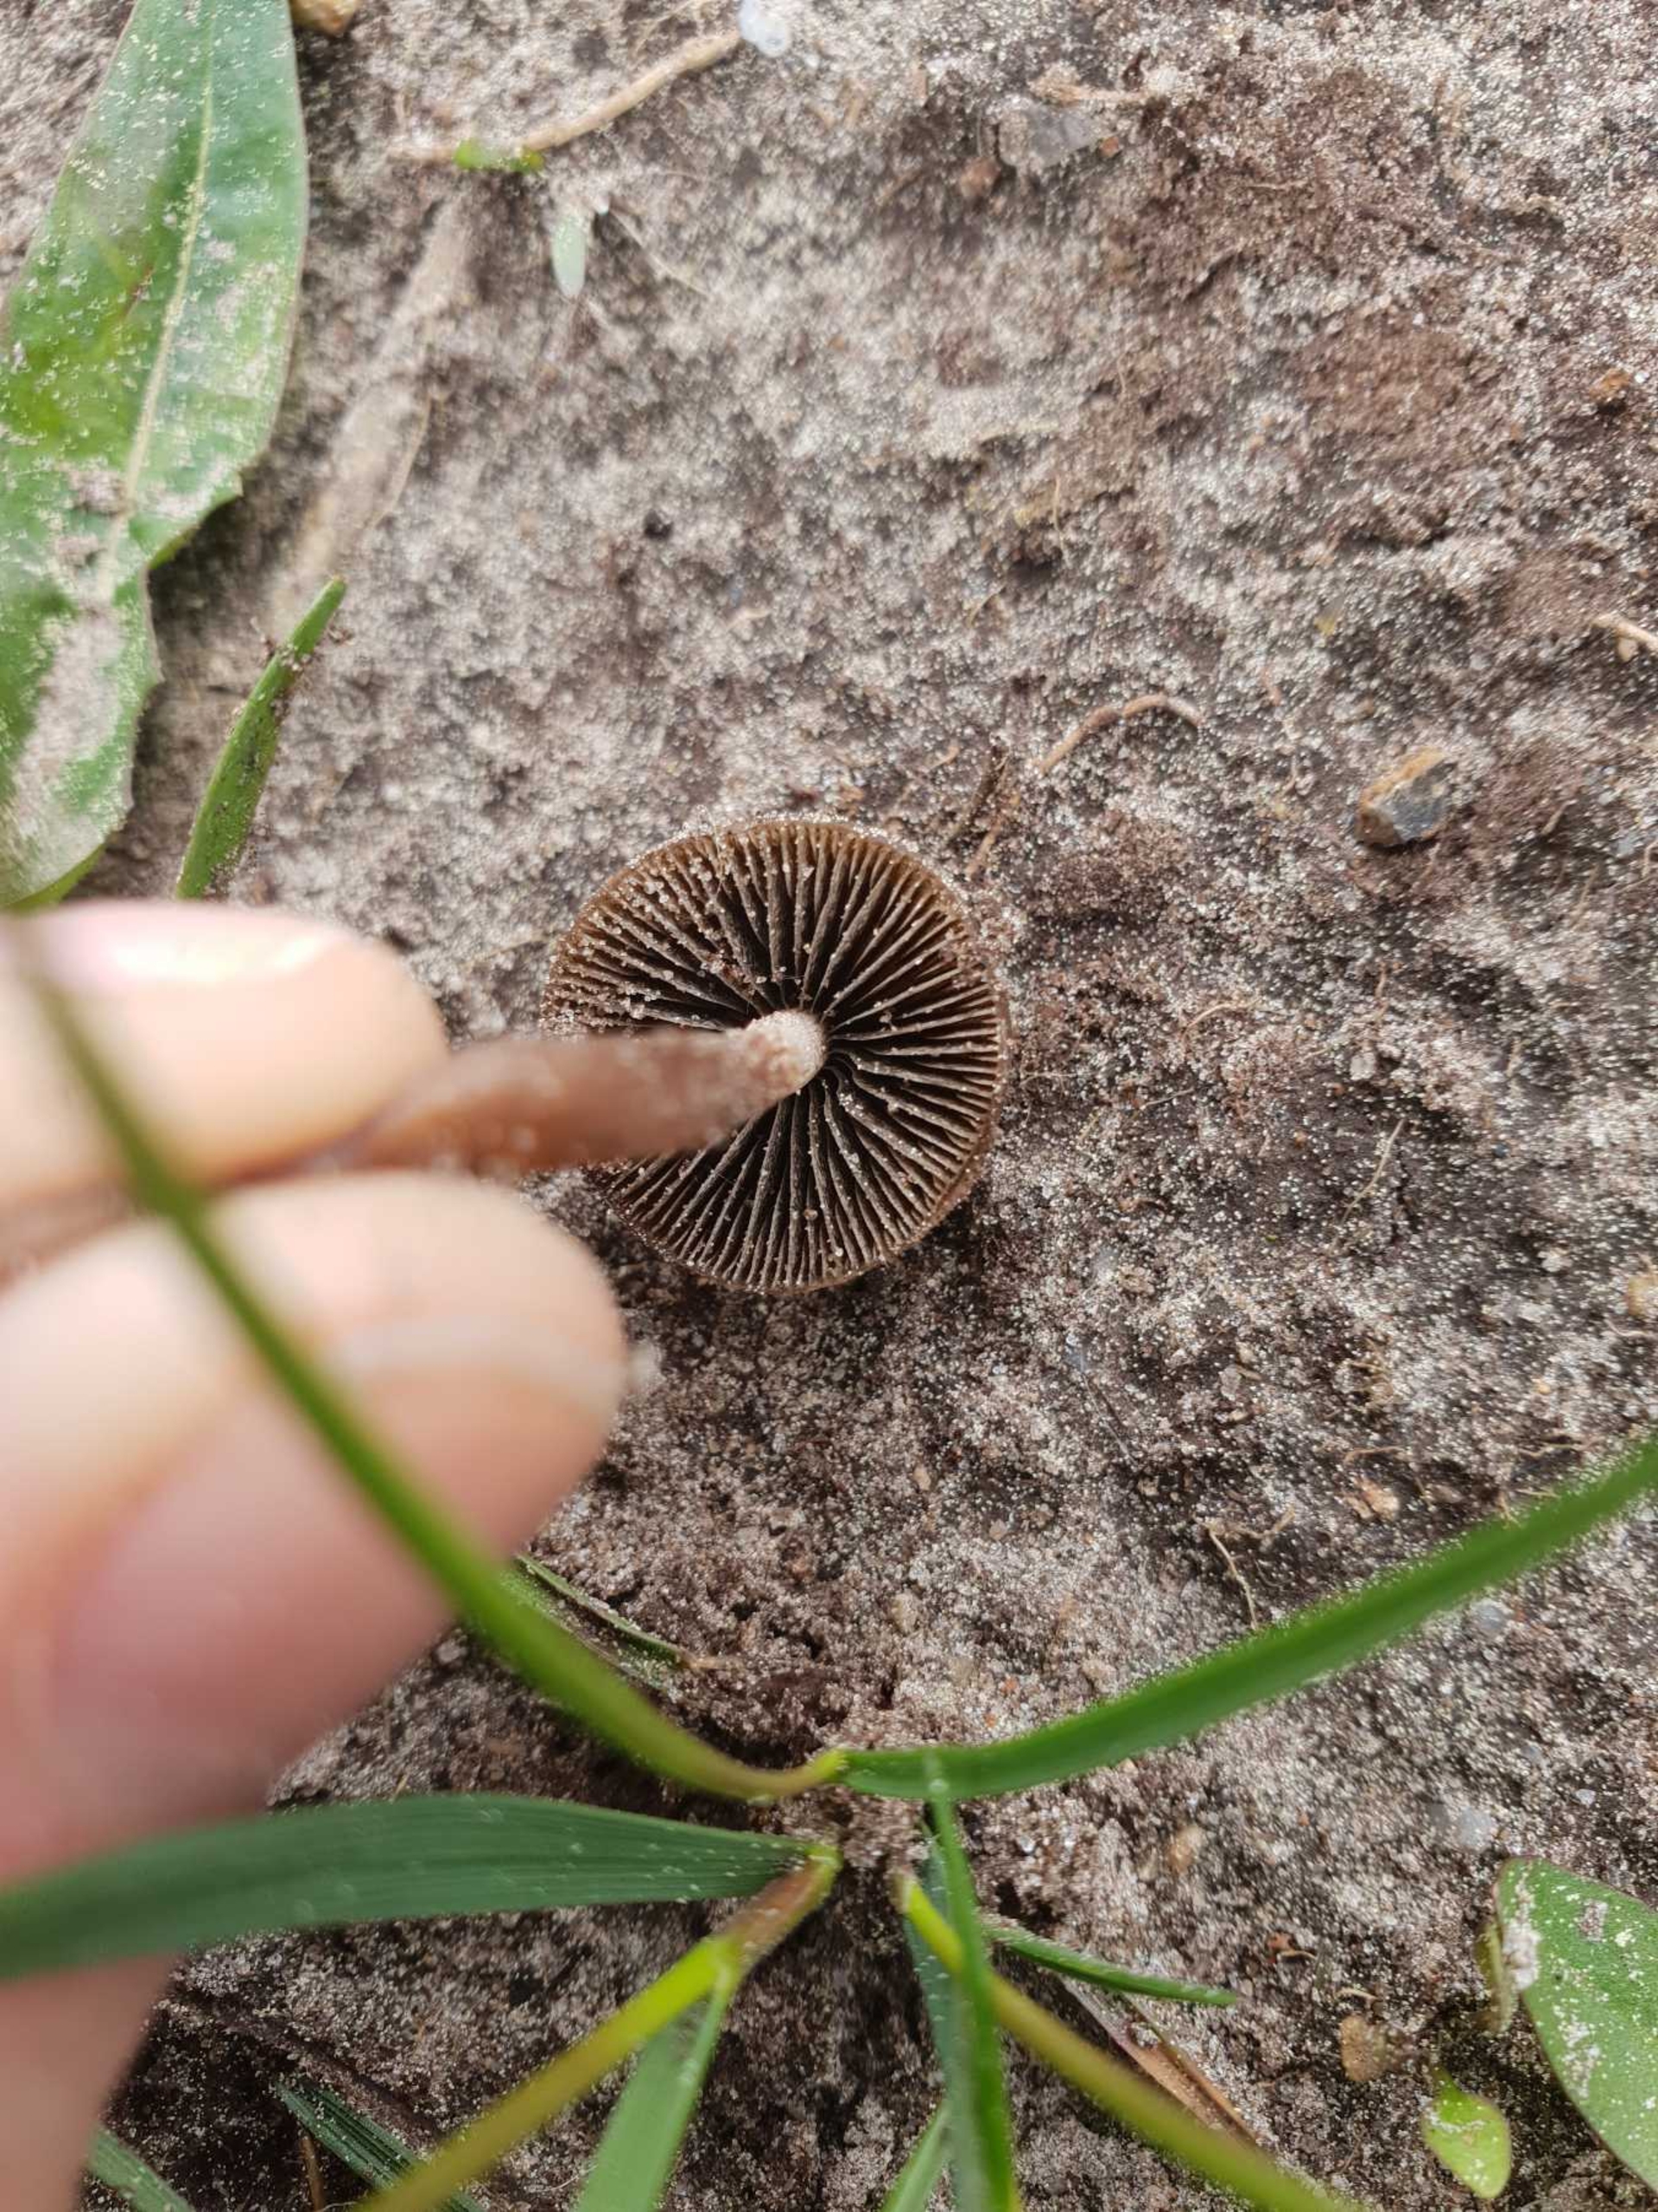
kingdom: Fungi
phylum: Basidiomycota
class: Agaricomycetes
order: Agaricales
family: Bolbitiaceae
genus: Panaeolus
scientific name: Panaeolus fimicola
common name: Tidlig glanshat
